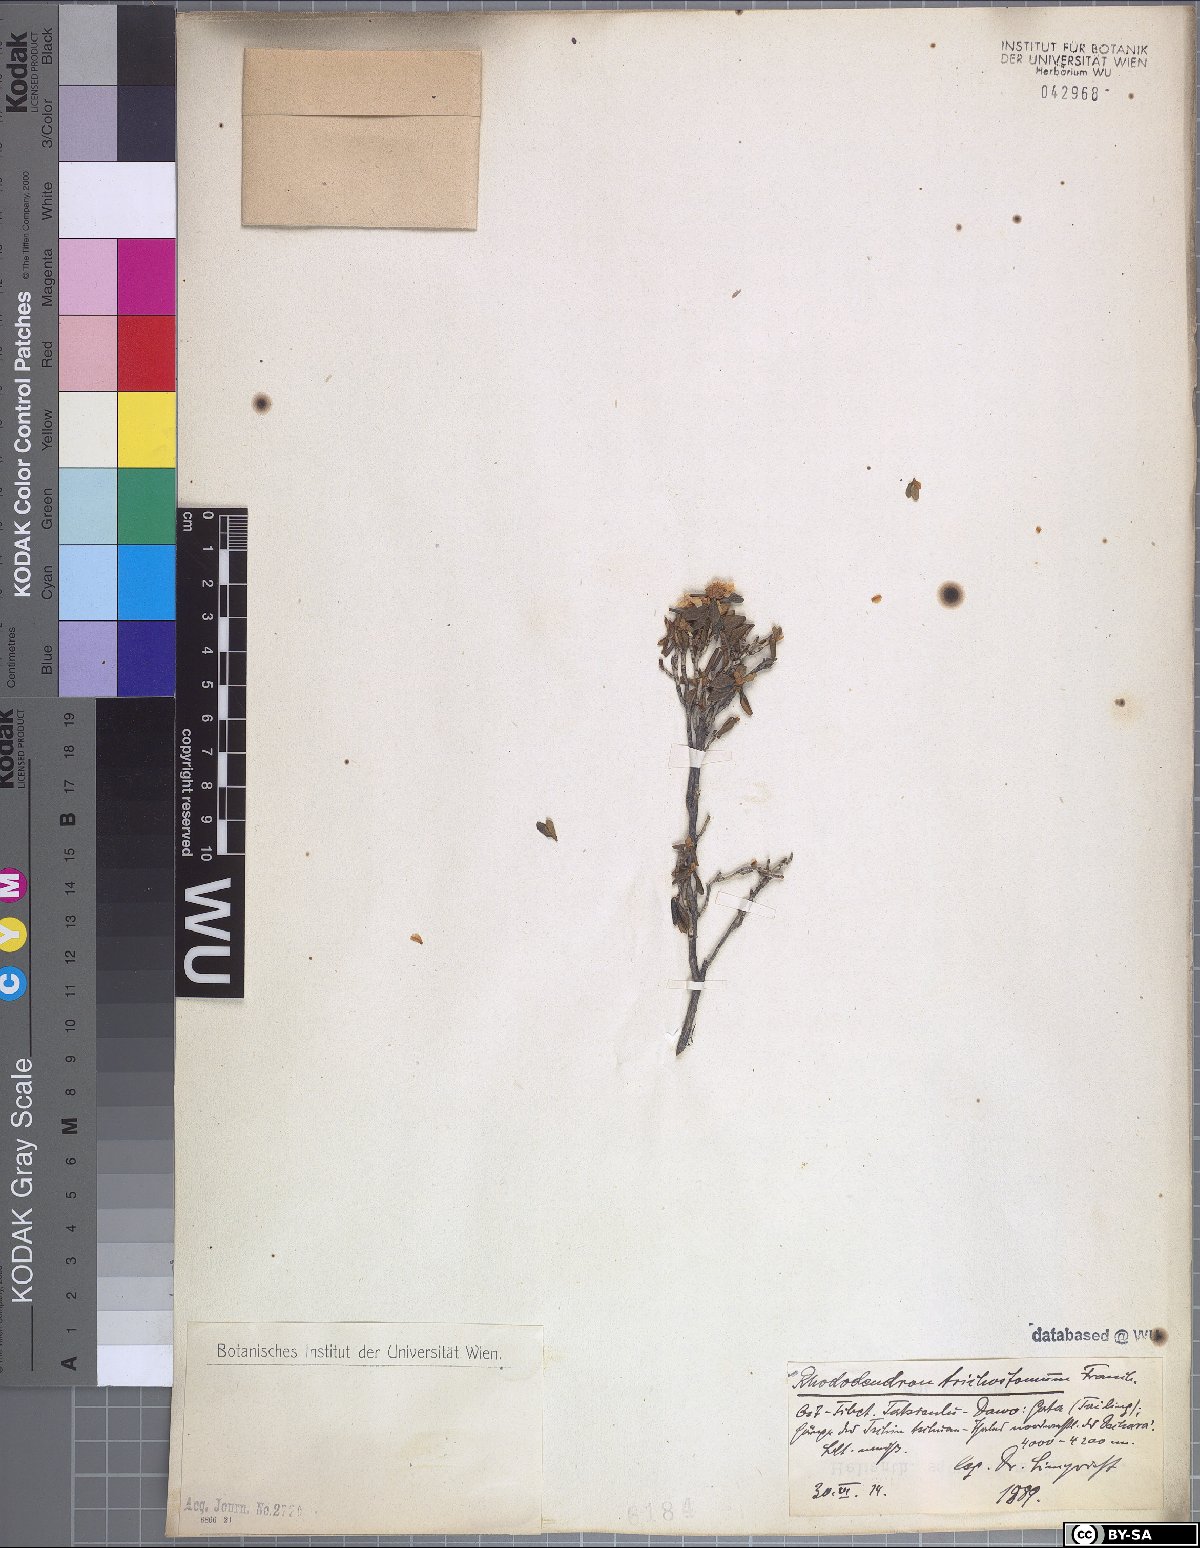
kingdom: Plantae
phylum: Tracheophyta
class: Magnoliopsida
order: Ericales
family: Ericaceae
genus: Rhododendron
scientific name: Rhododendron trichostomum
